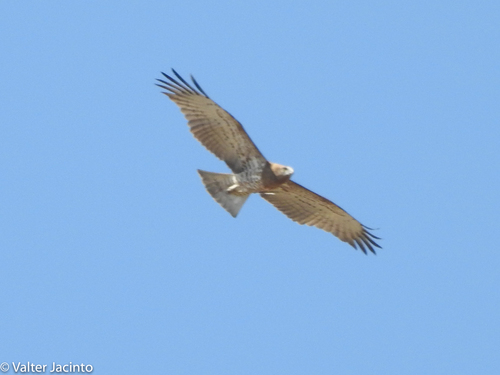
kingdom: Animalia
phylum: Chordata
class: Aves
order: Accipitriformes
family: Accipitridae
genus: Circaetus
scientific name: Circaetus gallicus
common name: Short-toed snake eagle
